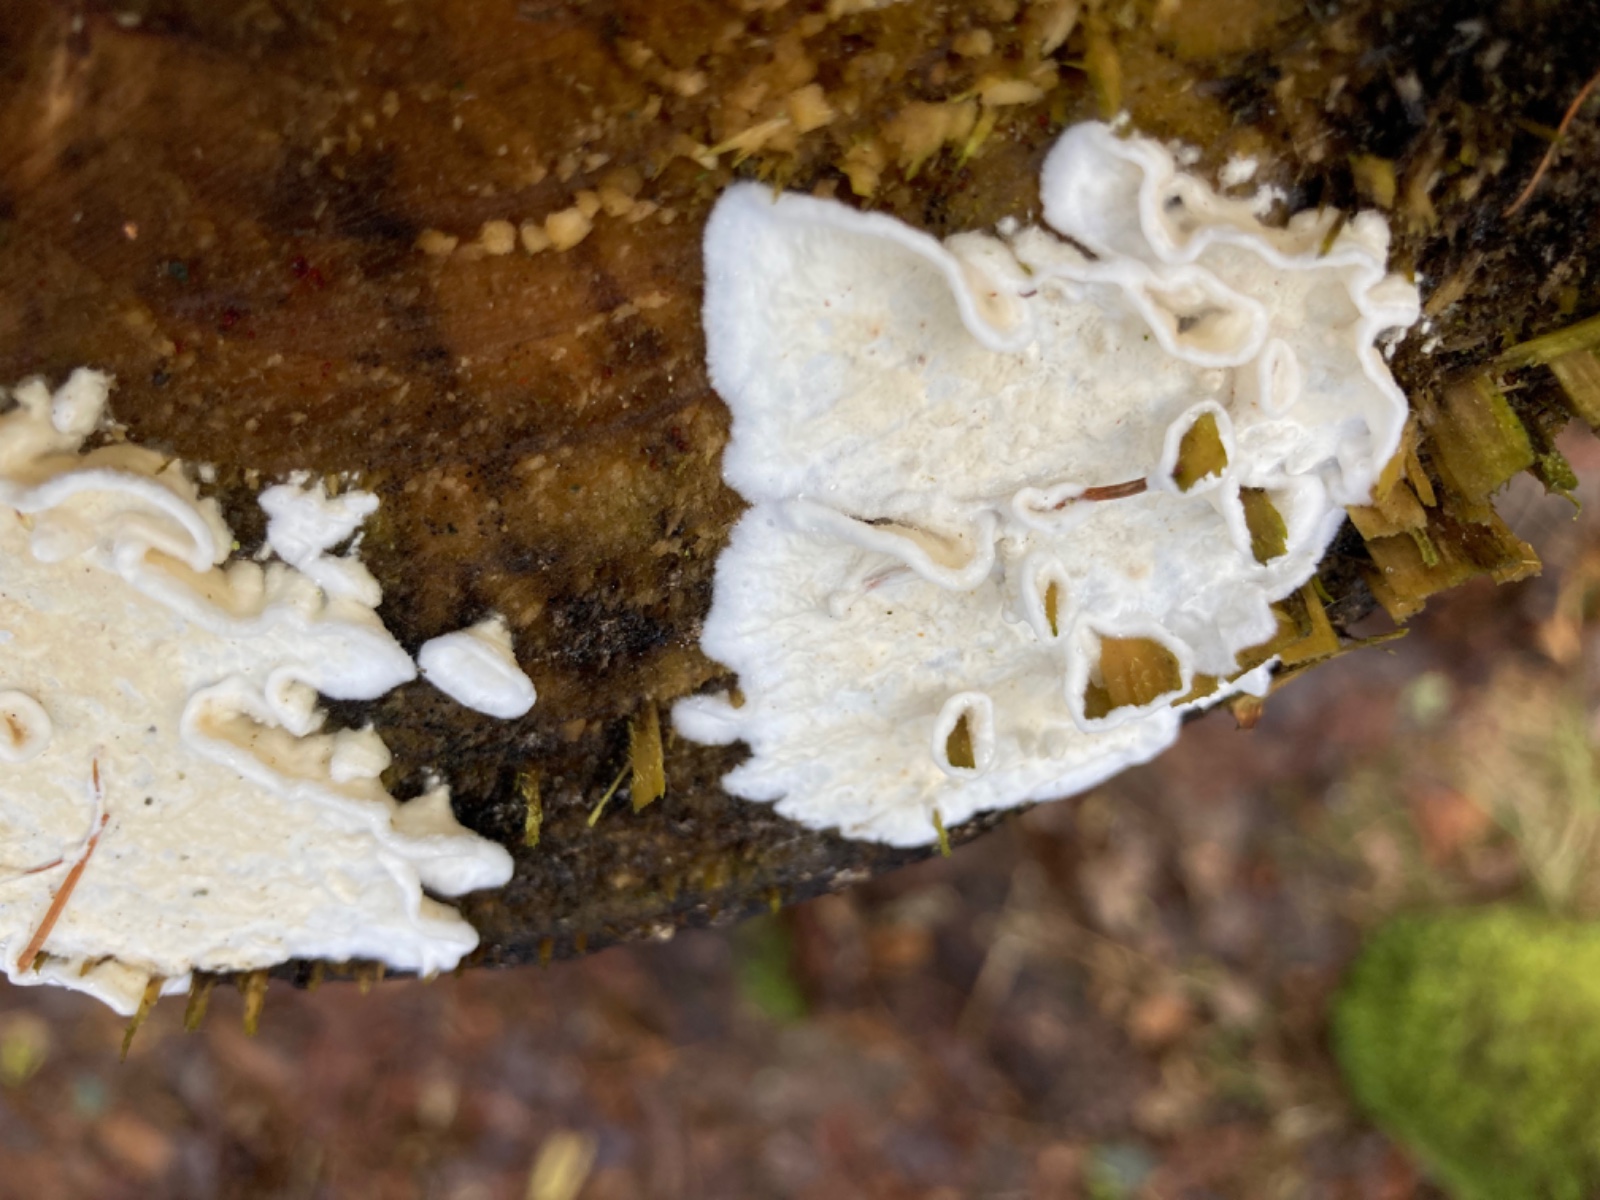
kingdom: Fungi
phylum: Basidiomycota
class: Agaricomycetes
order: Polyporales
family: Irpicaceae
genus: Byssomerulius
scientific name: Byssomerulius
